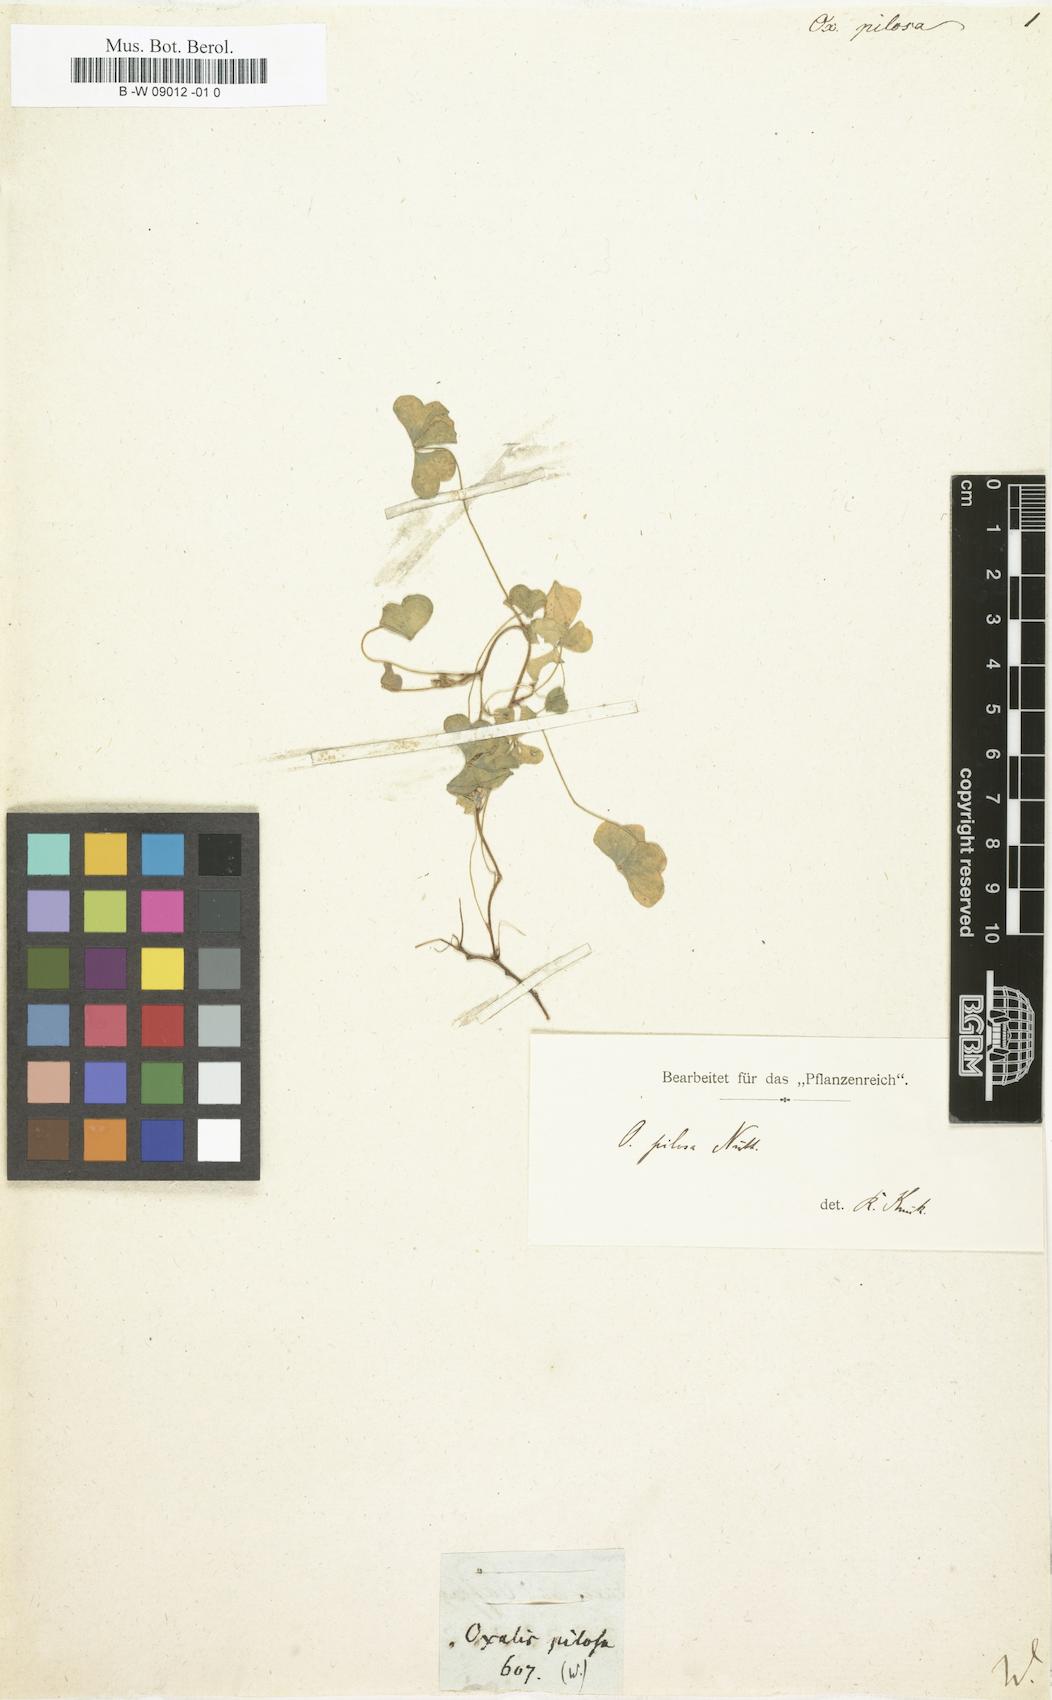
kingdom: Plantae
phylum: Tracheophyta
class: Magnoliopsida
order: Oxalidales
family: Oxalidaceae
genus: Oxalis
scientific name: Oxalis pilosa
